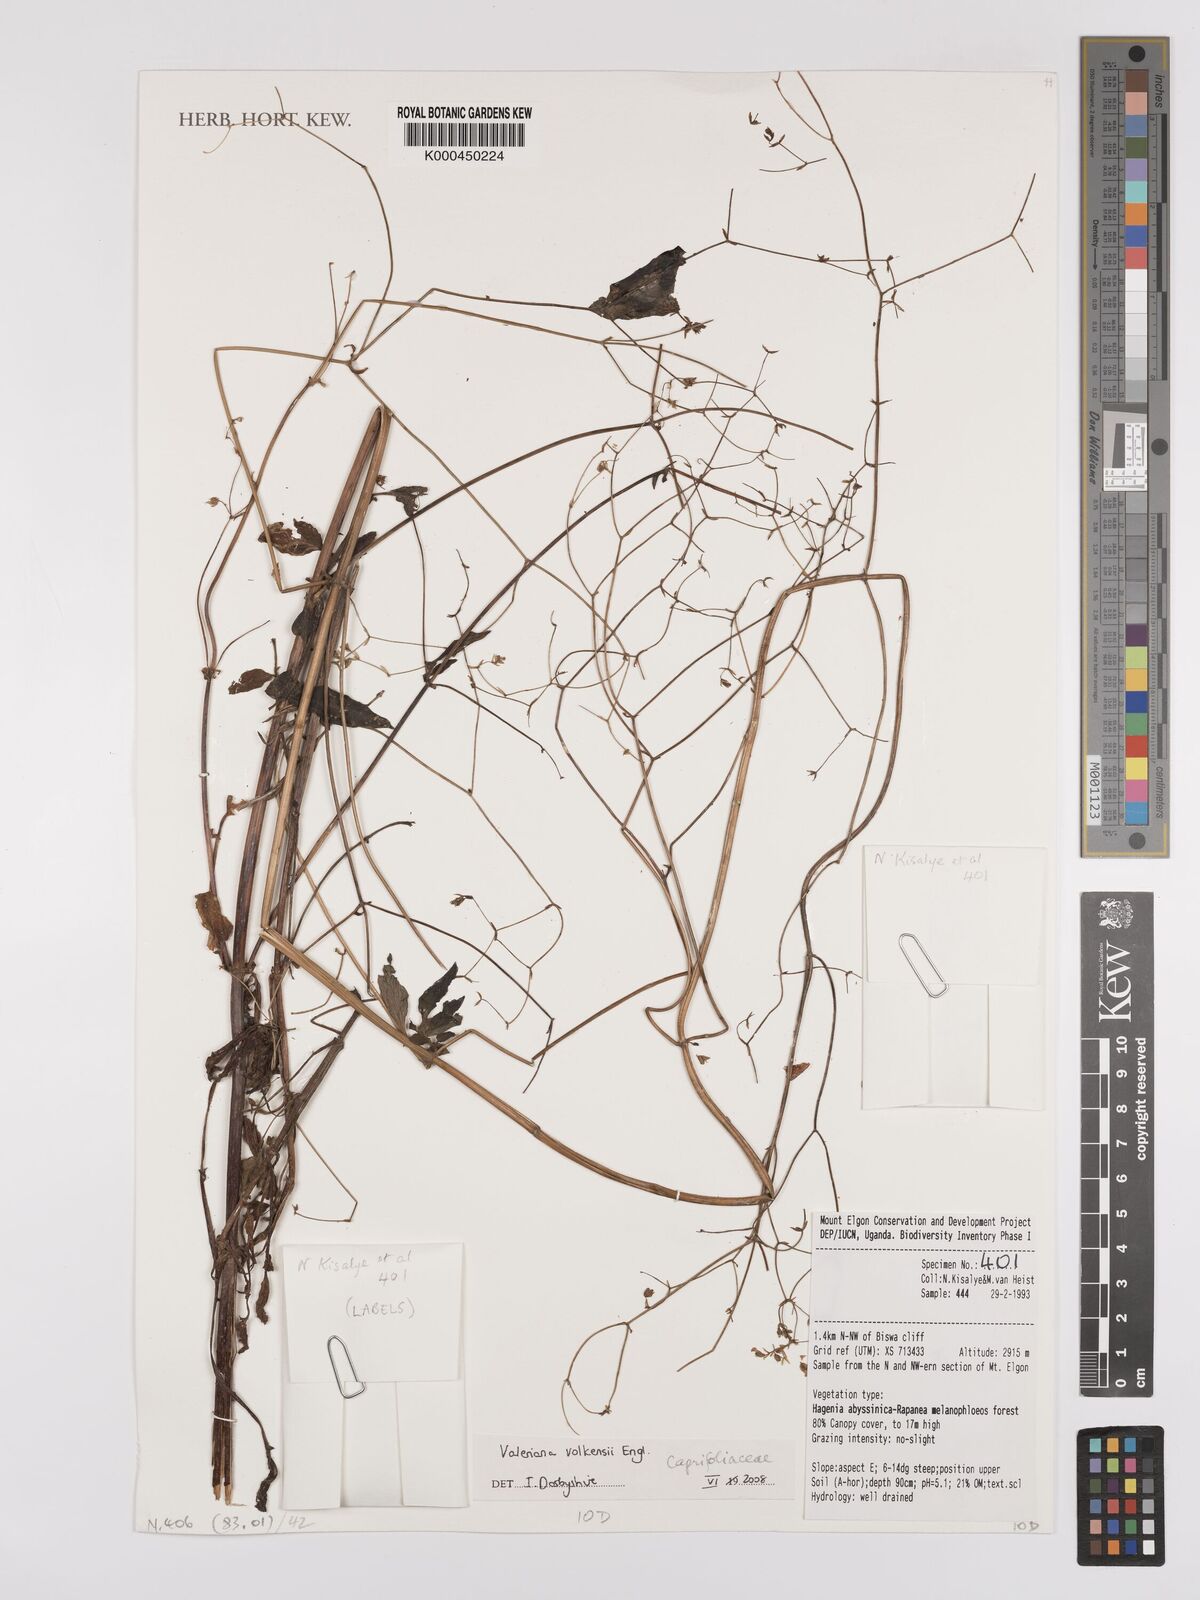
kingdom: Plantae
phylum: Tracheophyta
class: Magnoliopsida
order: Dipsacales
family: Caprifoliaceae
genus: Valeriana
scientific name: Valeriana volkensii
